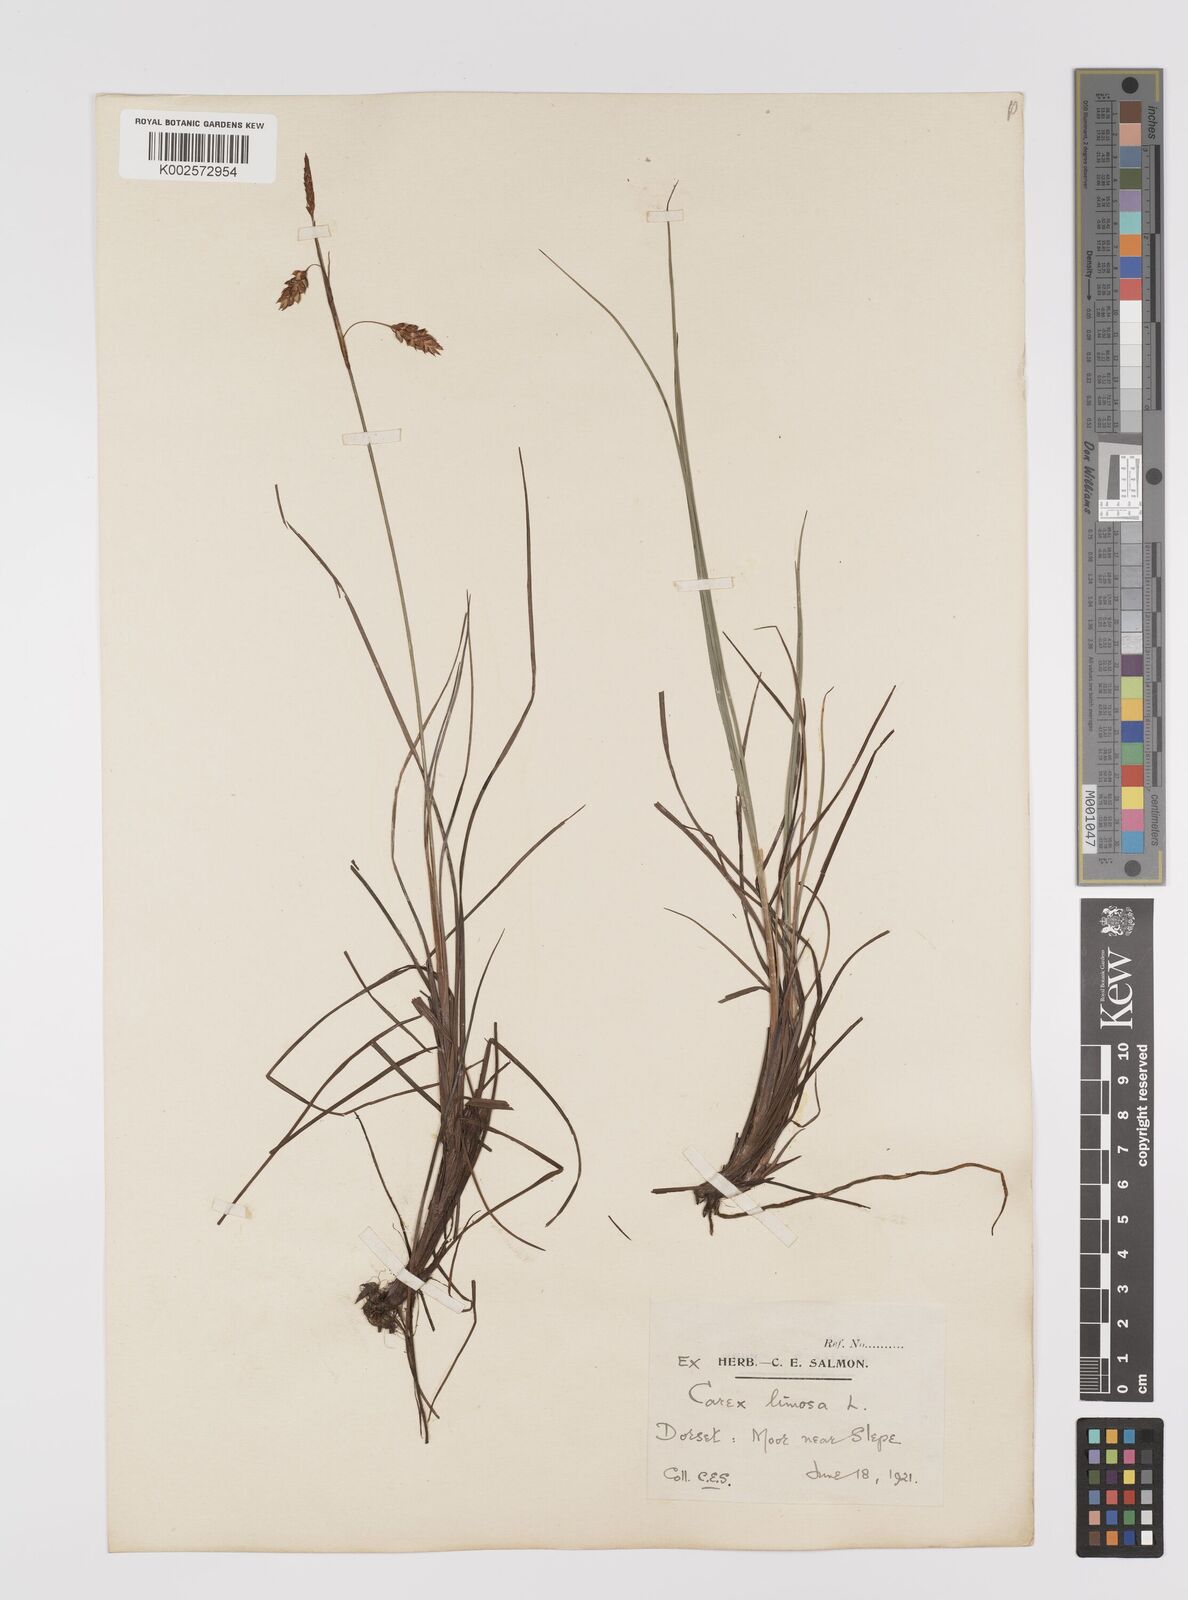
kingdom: Plantae
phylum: Tracheophyta
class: Liliopsida
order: Poales
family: Cyperaceae
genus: Carex
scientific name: Carex limosa
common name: Bog sedge
